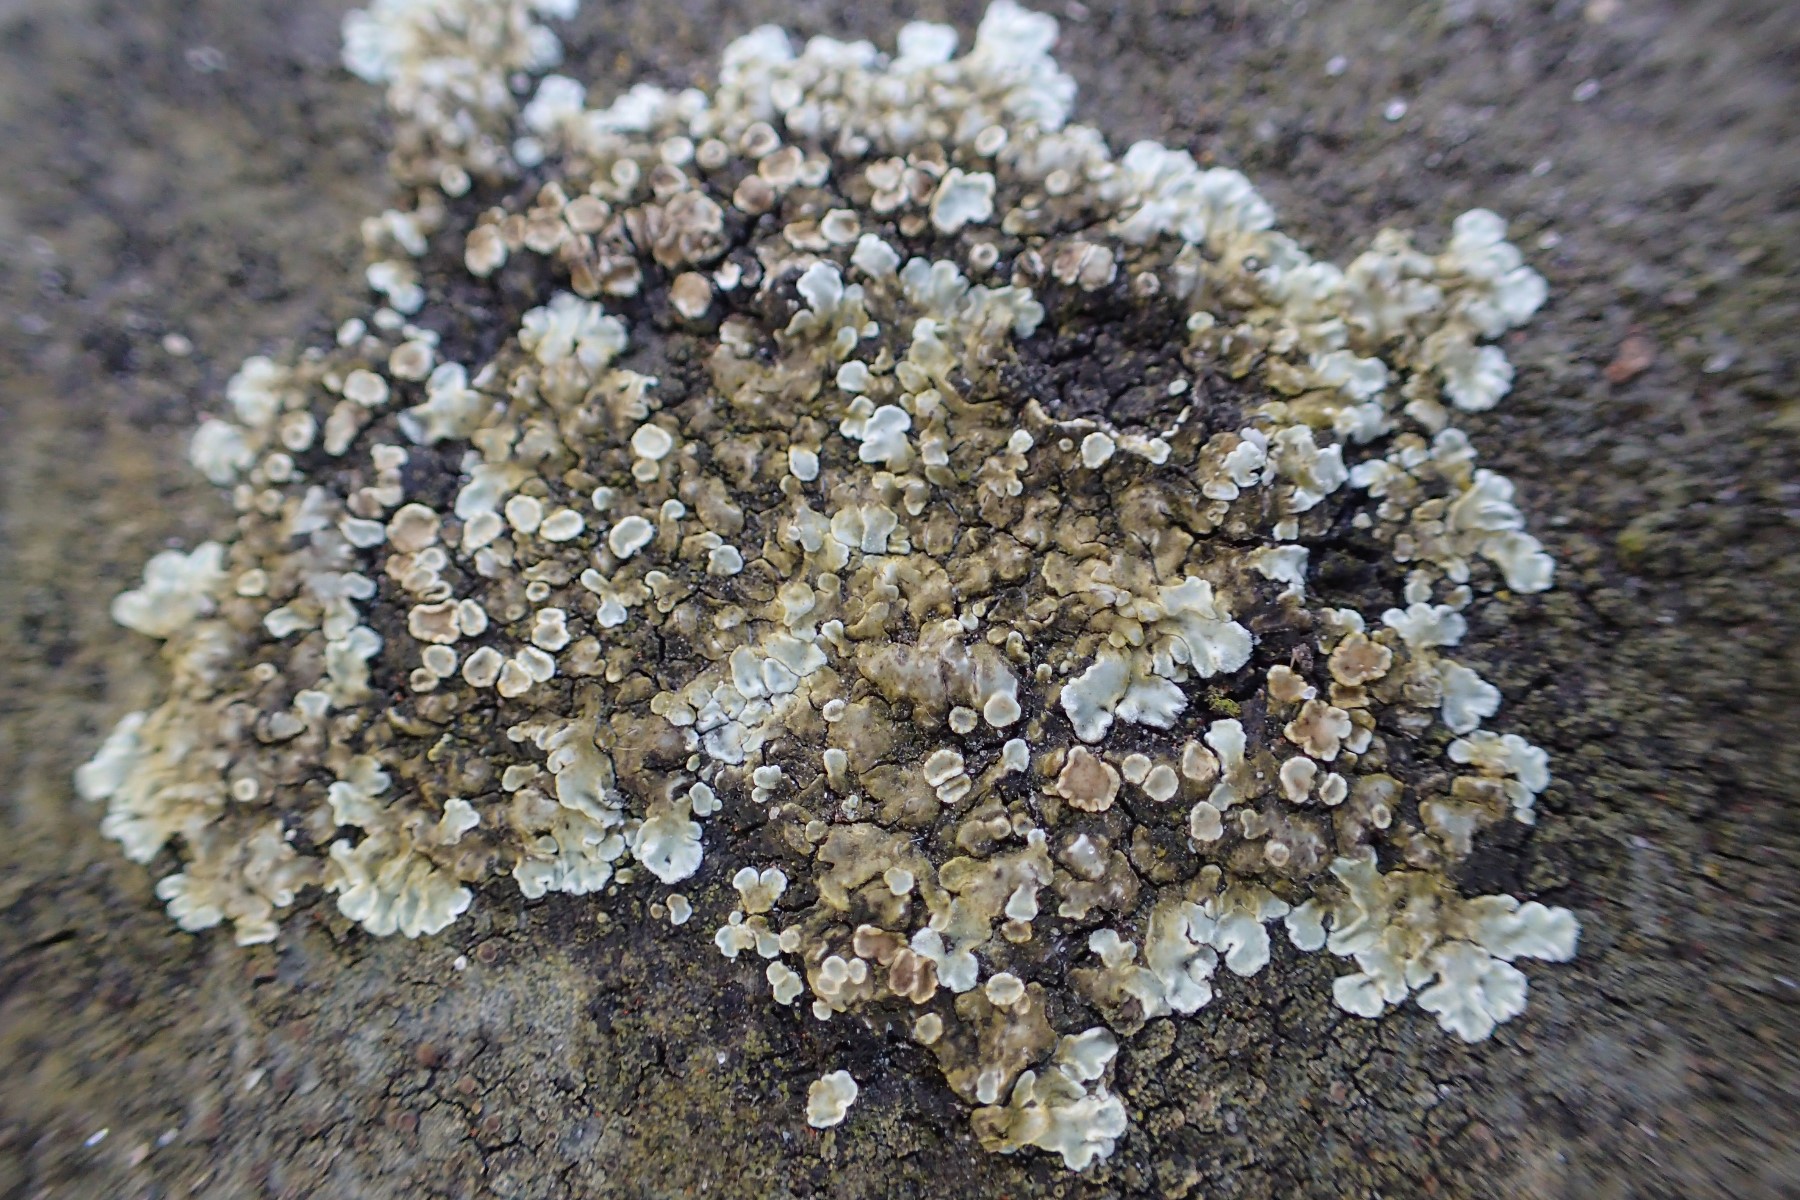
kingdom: Fungi
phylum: Ascomycota
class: Lecanoromycetes
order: Lecanorales
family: Lecanoraceae
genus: Protoparmeliopsis
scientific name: Protoparmeliopsis muralis
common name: randfliget kantskivelav
